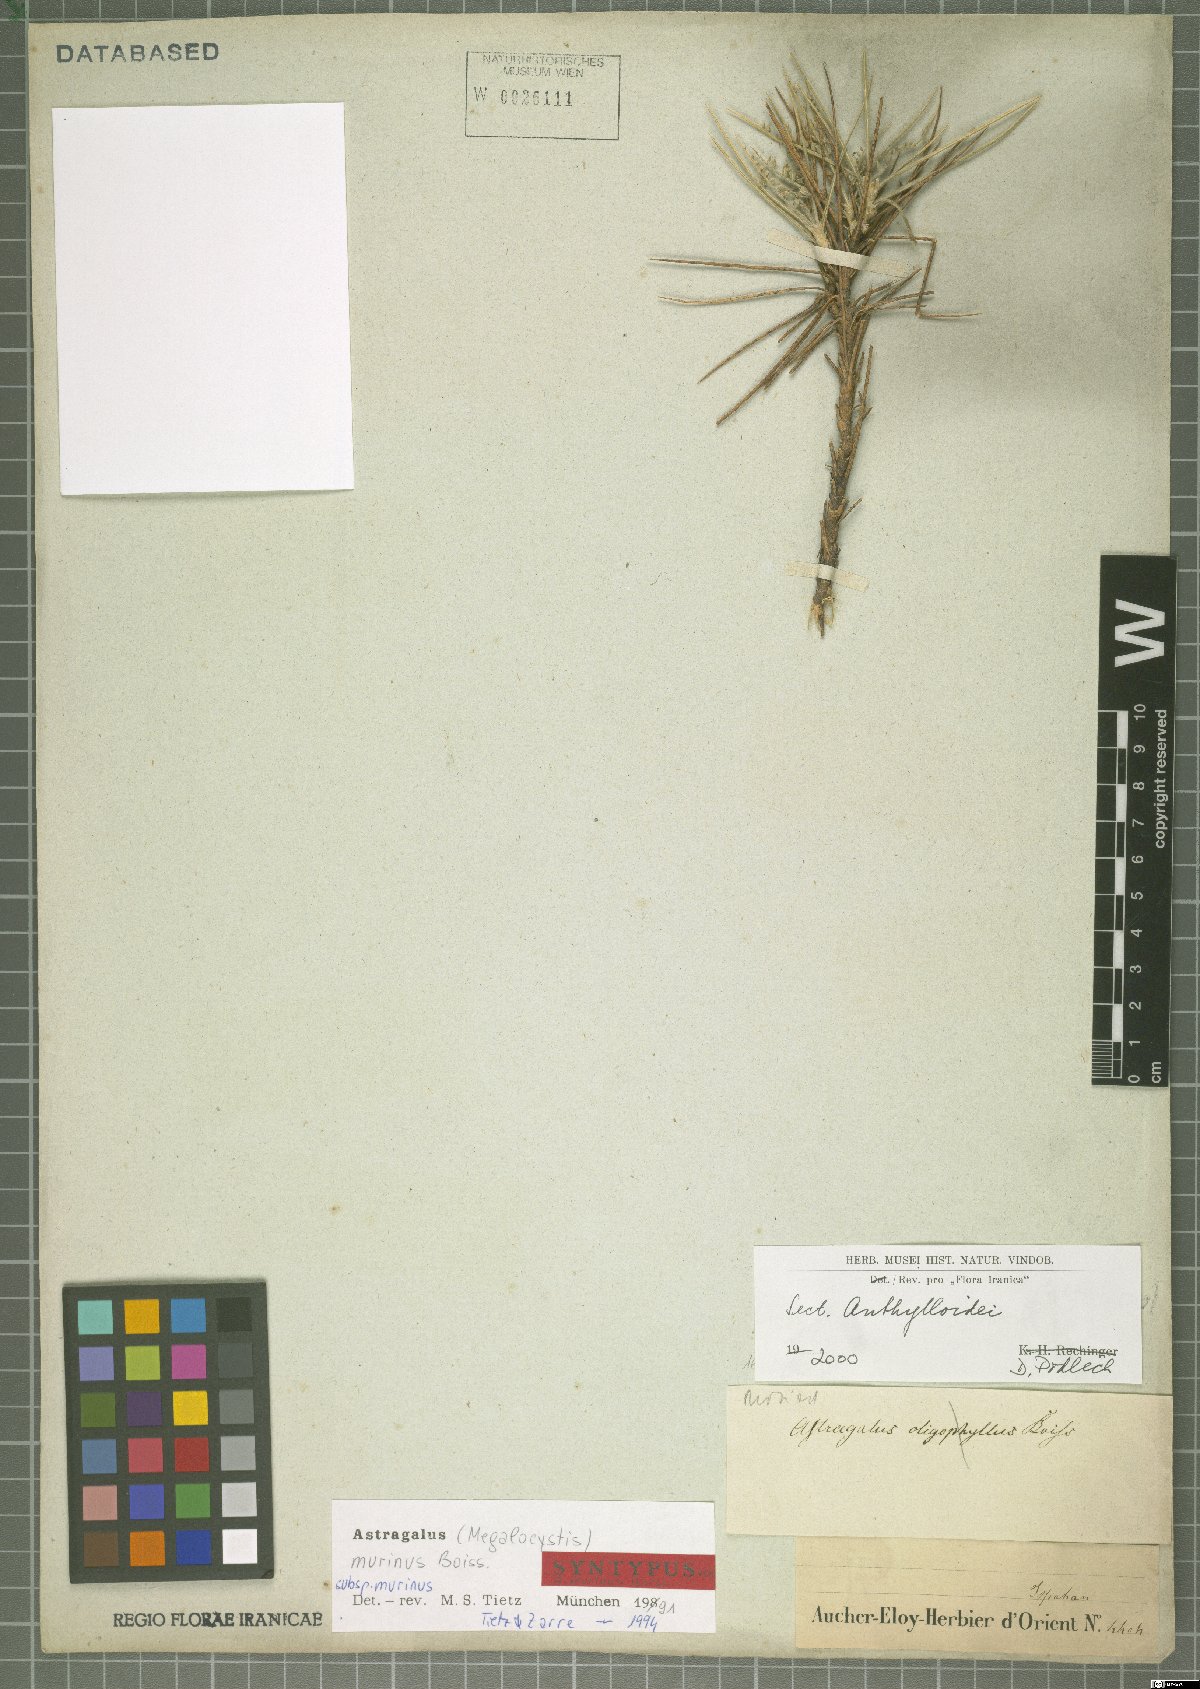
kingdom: Plantae
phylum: Tracheophyta
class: Magnoliopsida
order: Fabales
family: Fabaceae
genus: Astragalus
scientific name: Astragalus murinus
